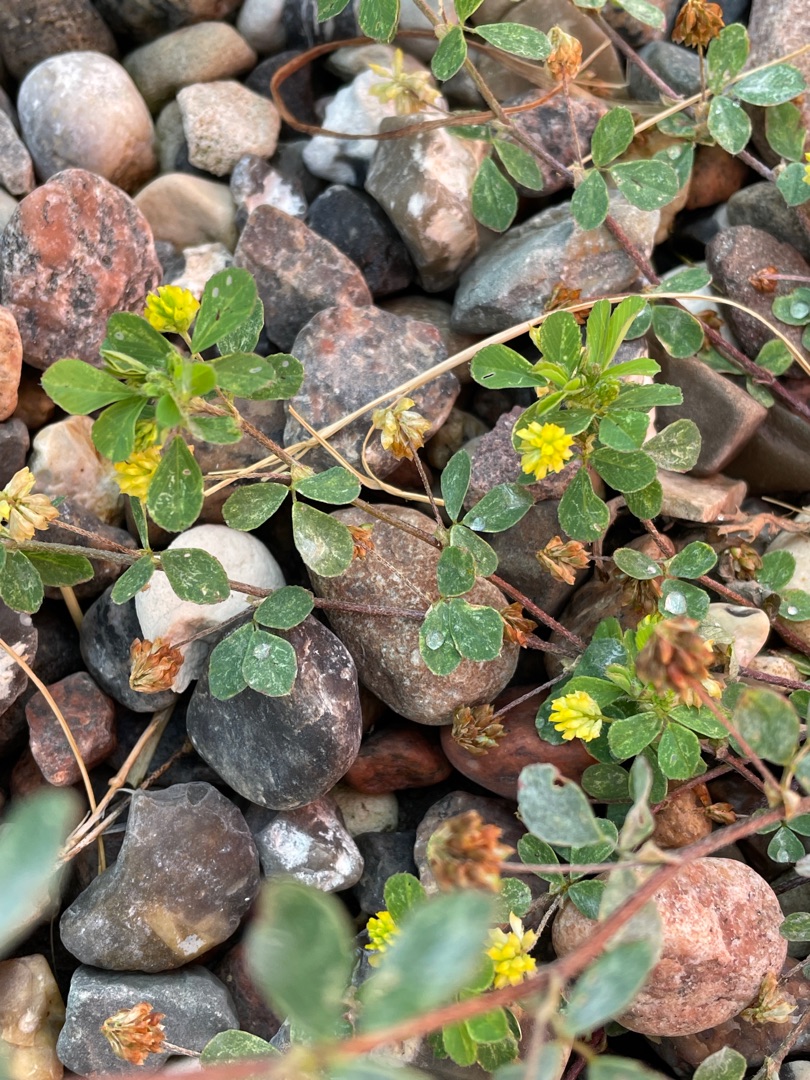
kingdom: Plantae
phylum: Tracheophyta
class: Magnoliopsida
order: Fabales
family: Fabaceae
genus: Medicago
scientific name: Medicago lupulina
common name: Humle-sneglebælg
